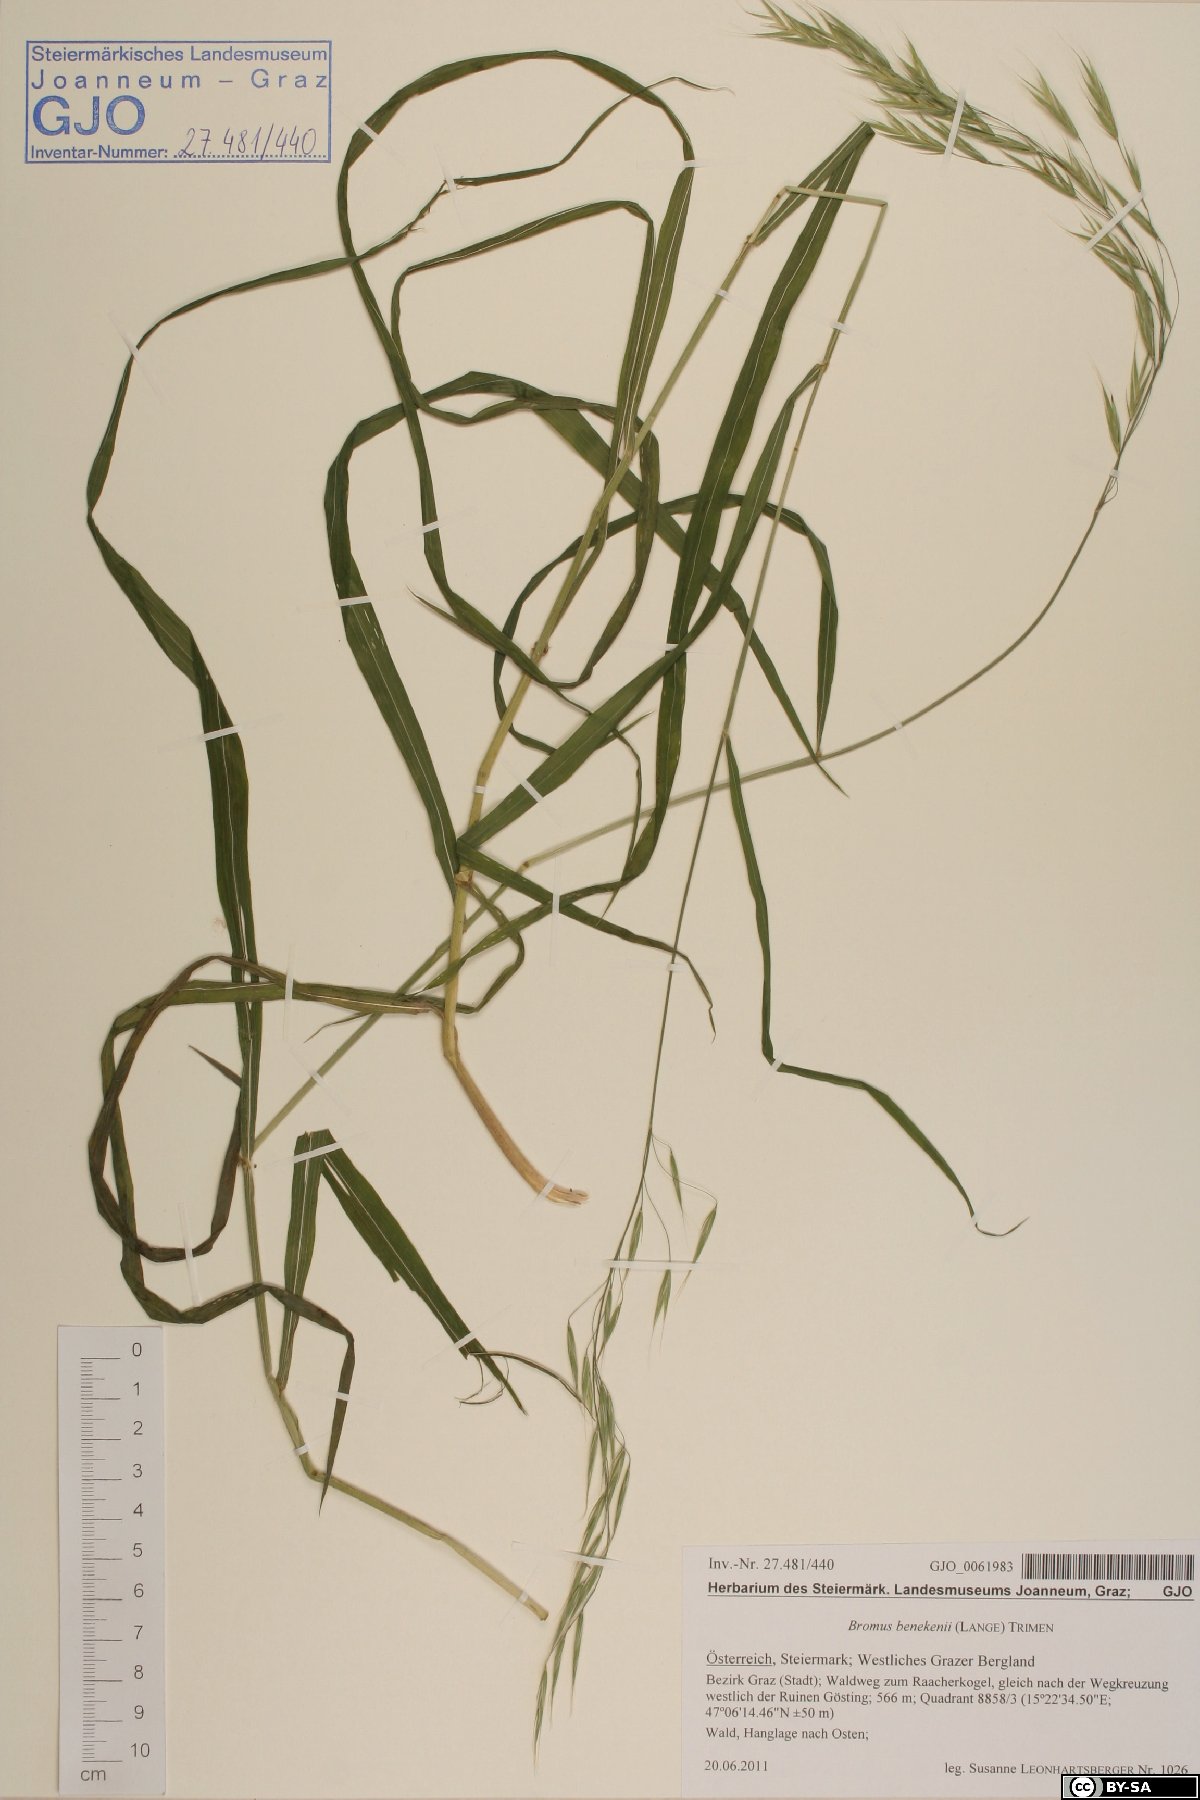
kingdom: Plantae
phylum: Tracheophyta
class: Liliopsida
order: Poales
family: Poaceae
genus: Bromus
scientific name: Bromus benekenii
